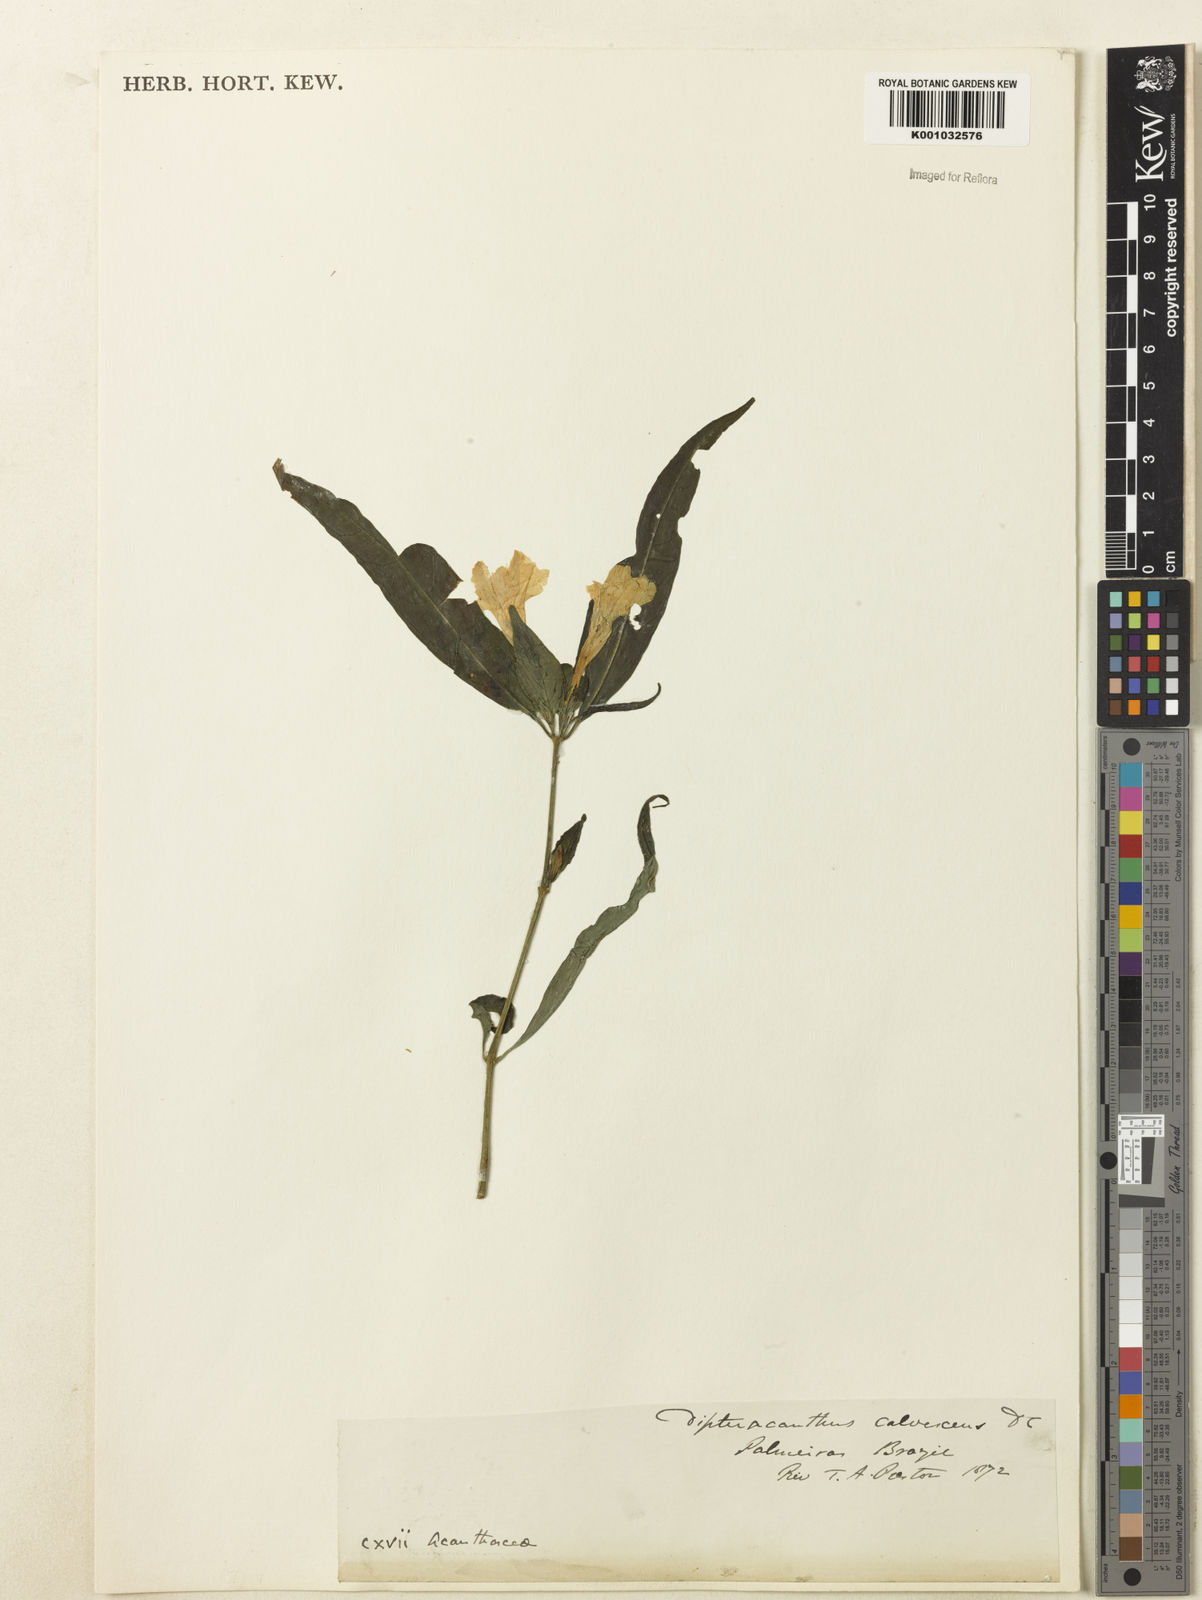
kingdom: Plantae
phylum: Tracheophyta
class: Magnoliopsida
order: Lamiales
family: Acanthaceae
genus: Ruellia
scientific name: Ruellia solitaria
